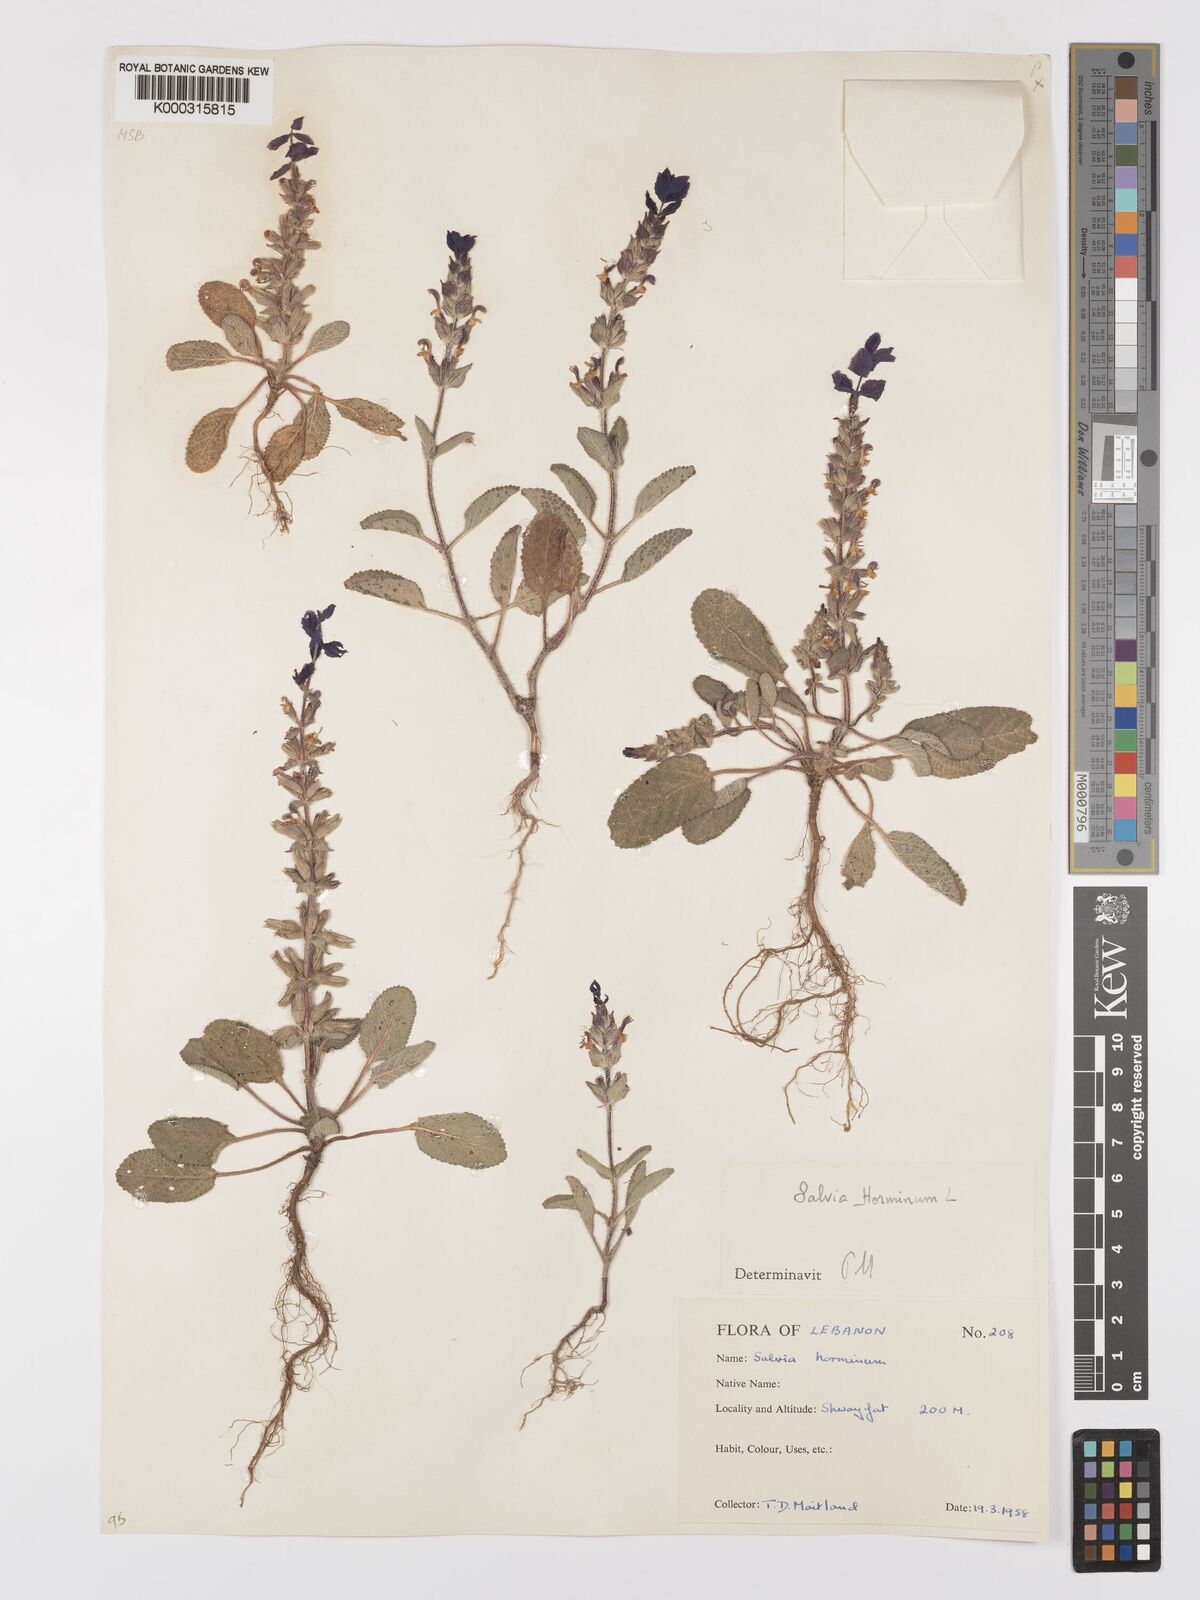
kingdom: Plantae
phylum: Tracheophyta
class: Magnoliopsida
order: Lamiales
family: Lamiaceae
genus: Salvia
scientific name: Salvia viridis
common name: Annual clary
